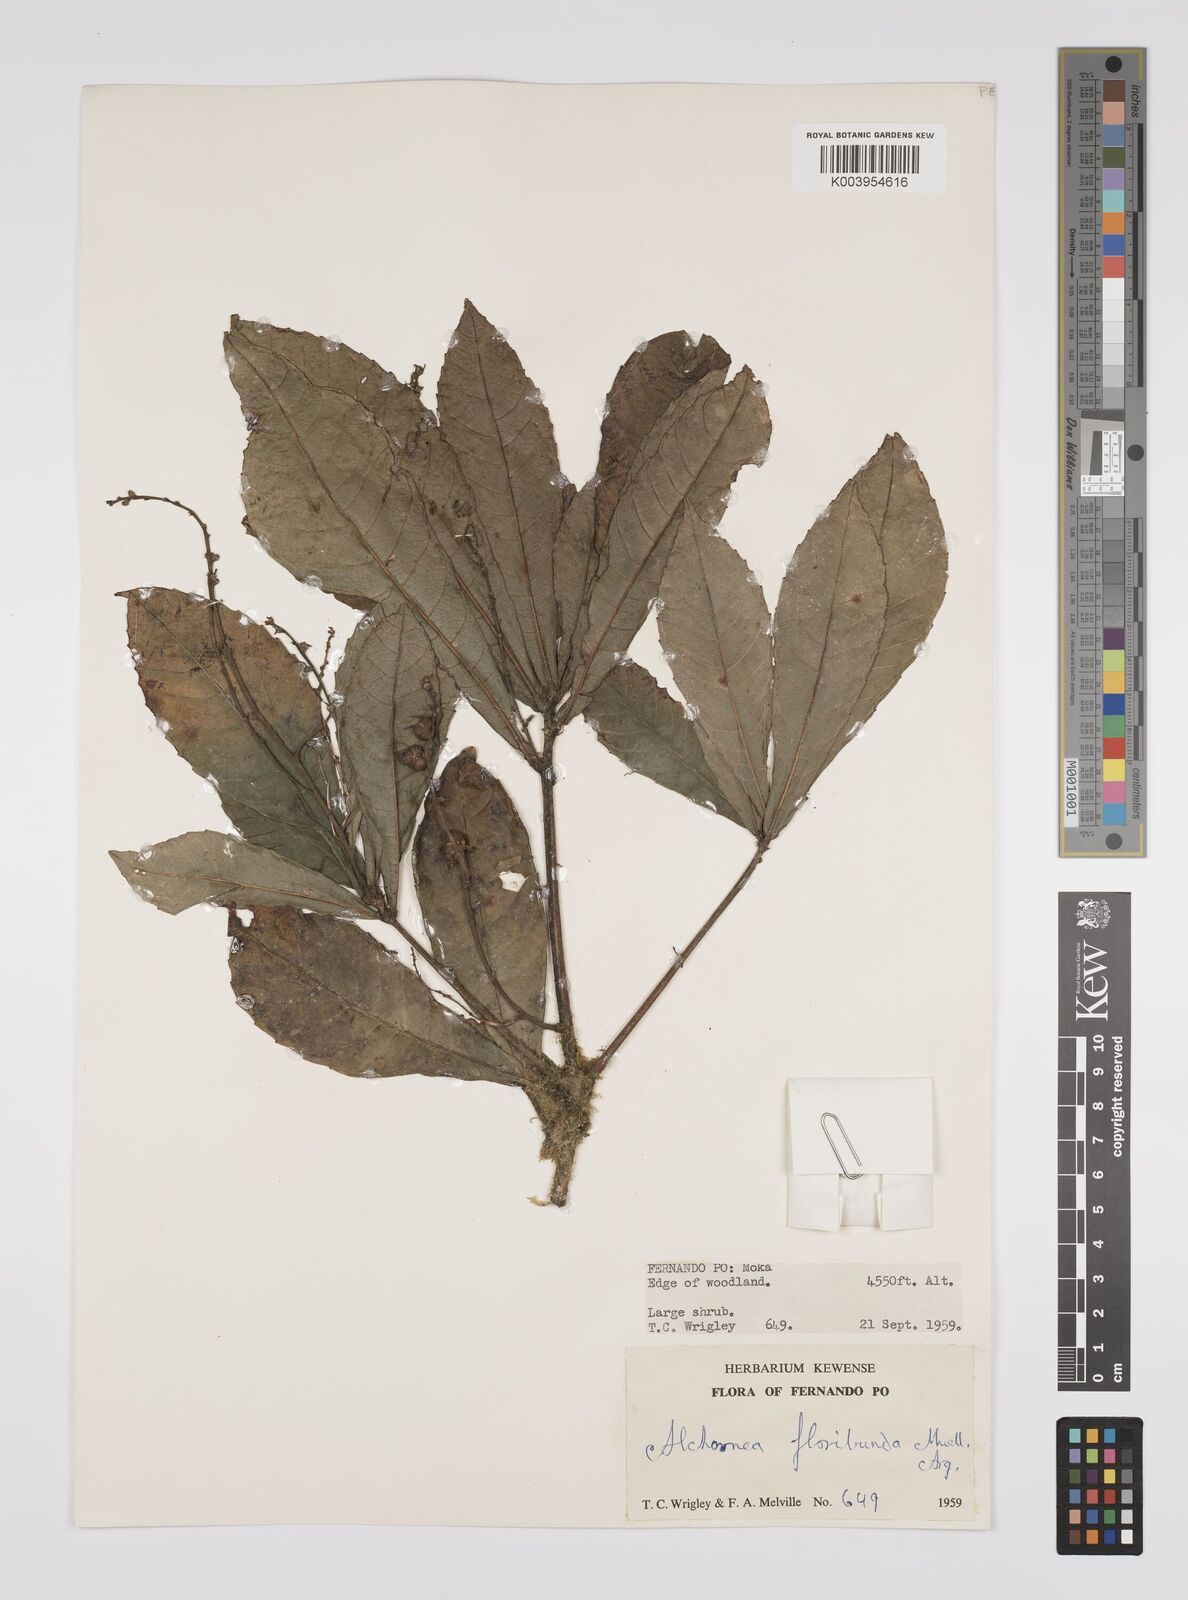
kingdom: Plantae
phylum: Tracheophyta
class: Magnoliopsida
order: Malpighiales
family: Euphorbiaceae
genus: Alchornea
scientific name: Alchornea floribunda
